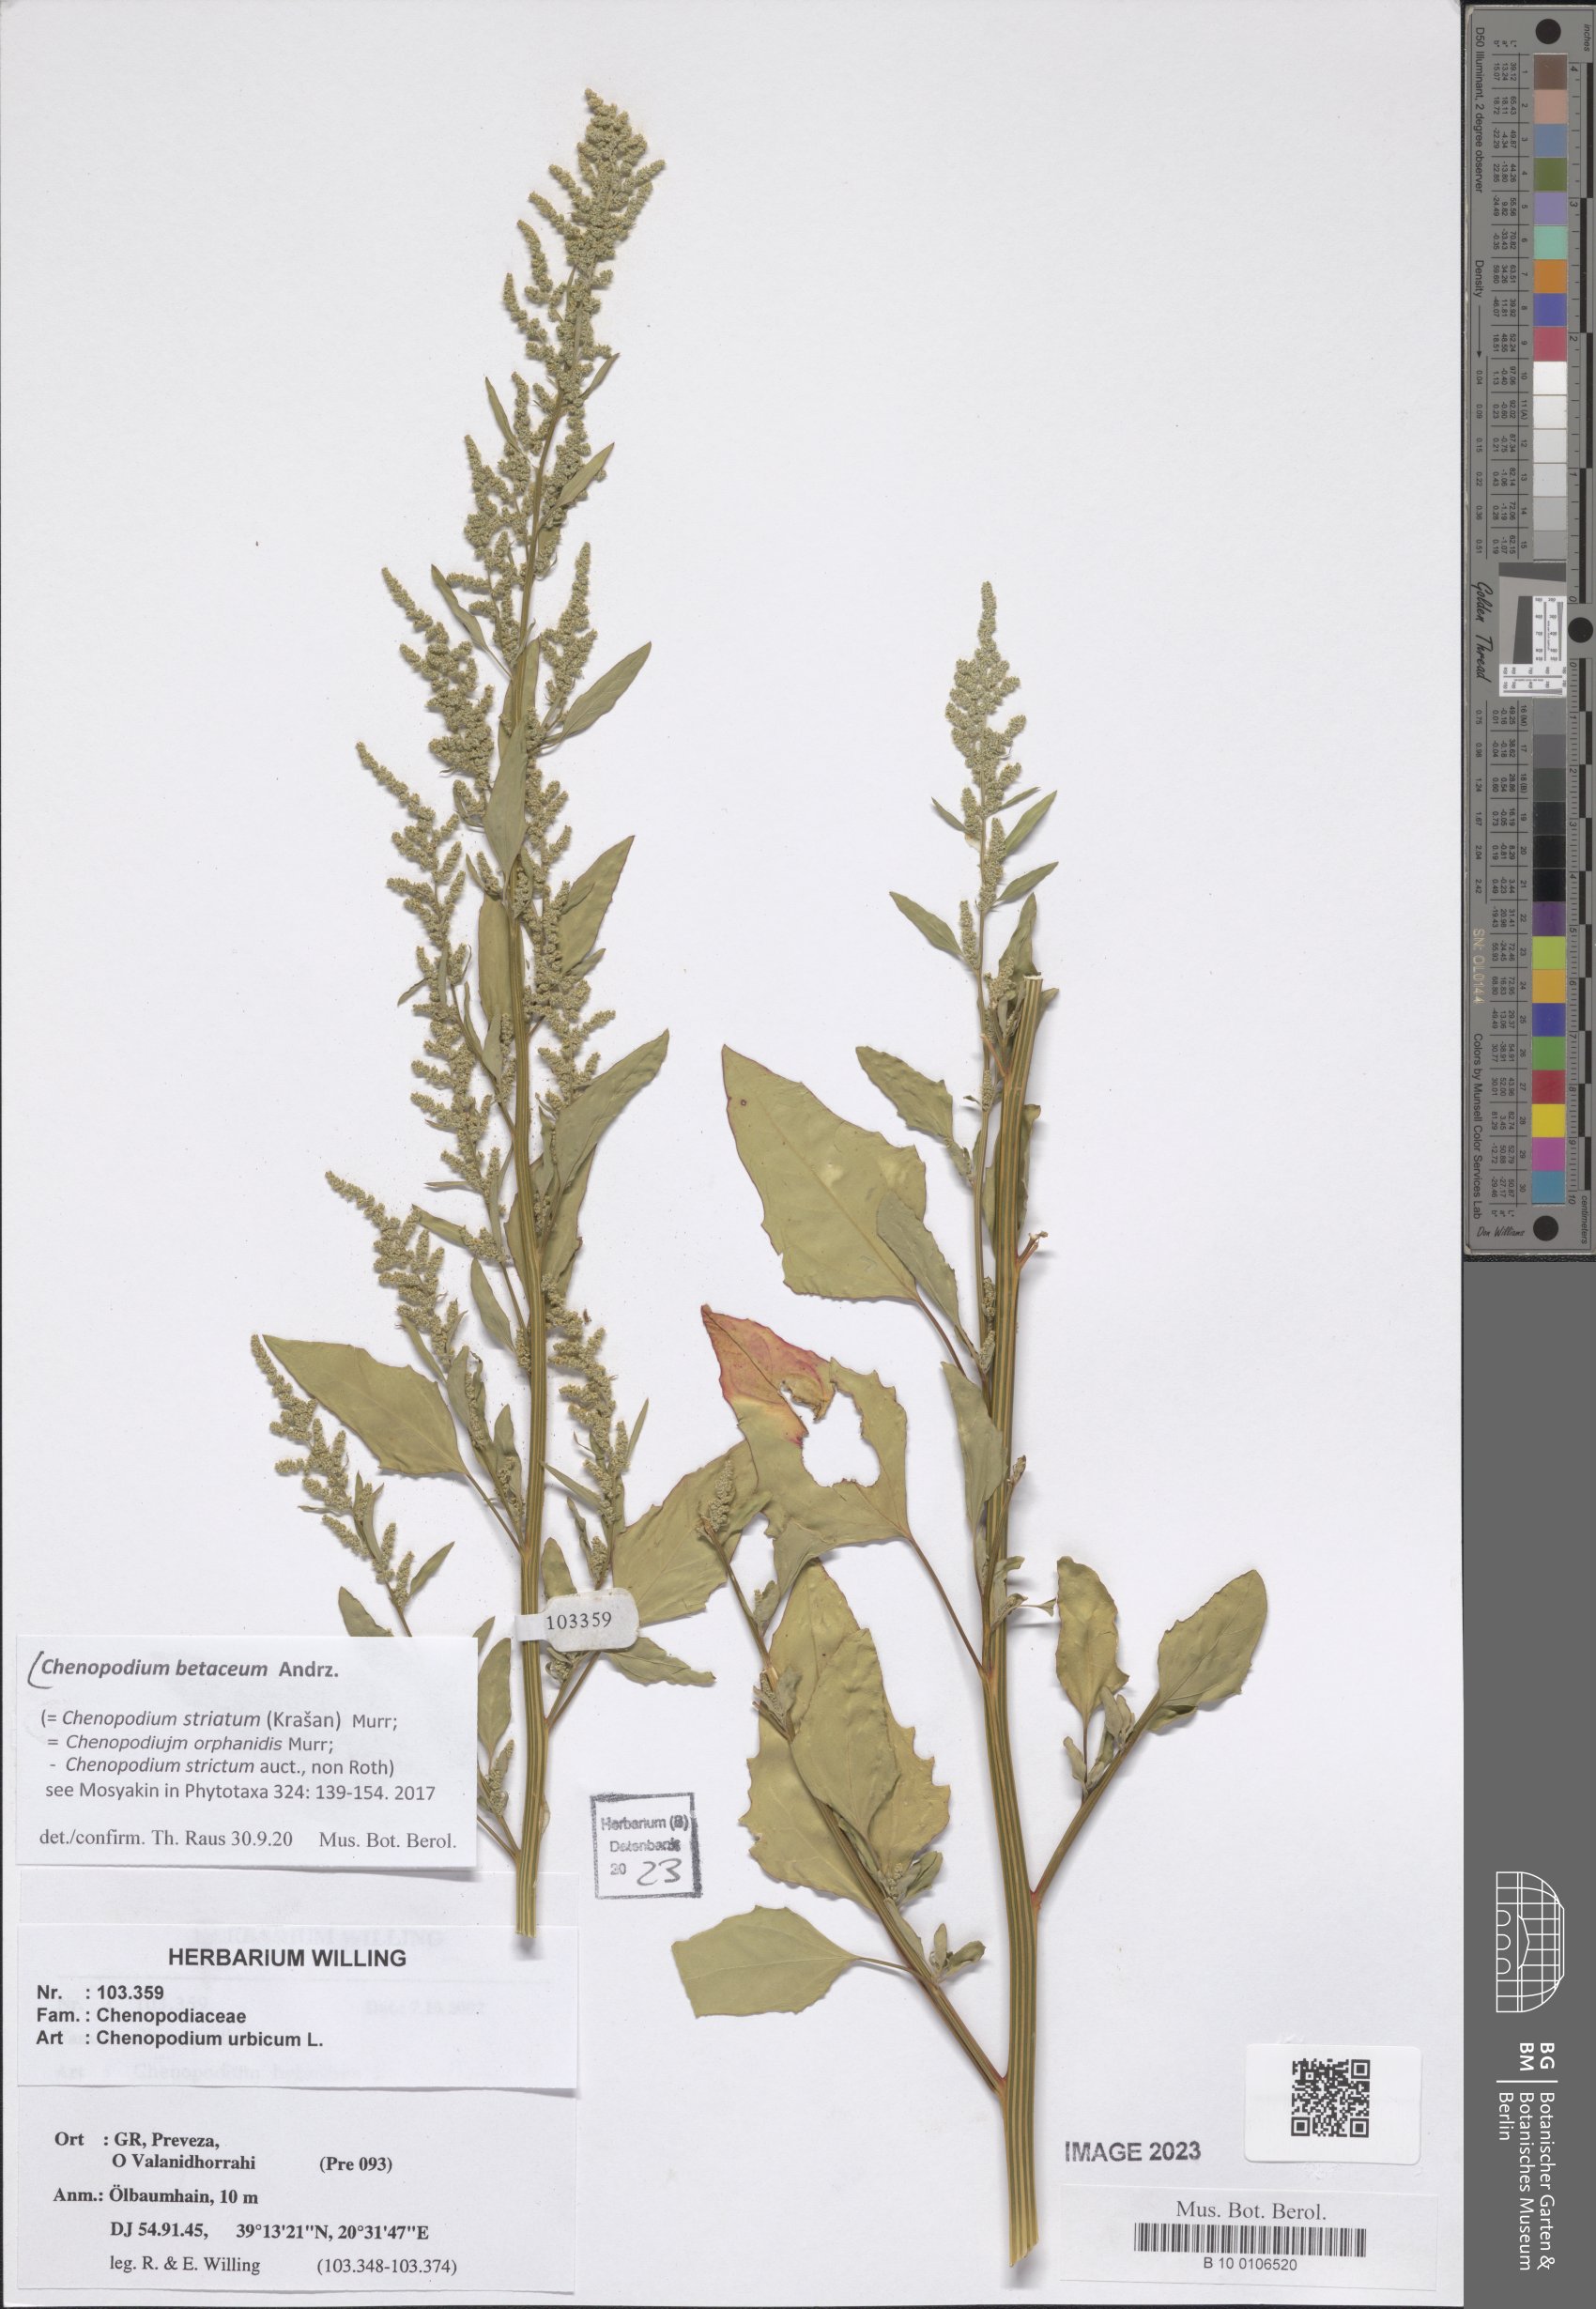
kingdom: Plantae
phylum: Tracheophyta
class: Magnoliopsida
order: Caryophyllales
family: Amaranthaceae
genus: Chenopodium
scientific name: Chenopodium betaceum
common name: Striped goosefoot
